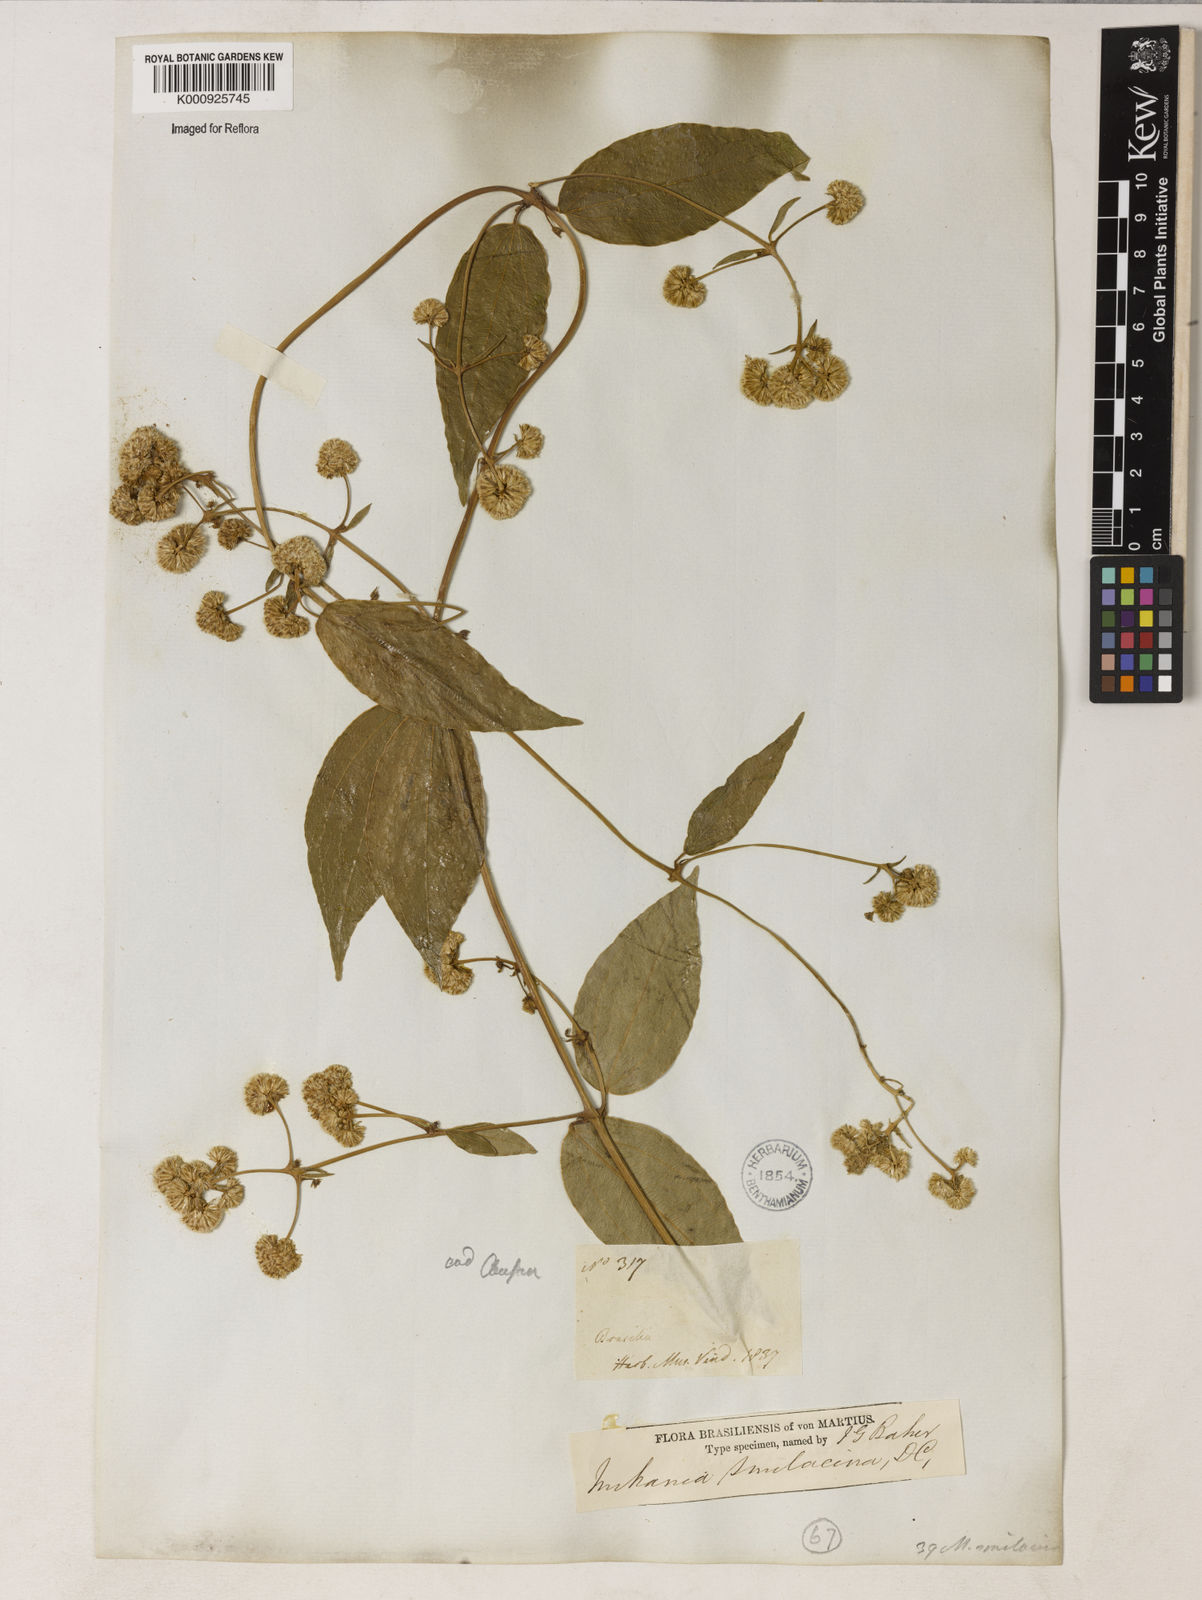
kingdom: Plantae
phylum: Tracheophyta
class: Magnoliopsida
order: Asterales
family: Asteraceae
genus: Mikania
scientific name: Mikania smilacina
